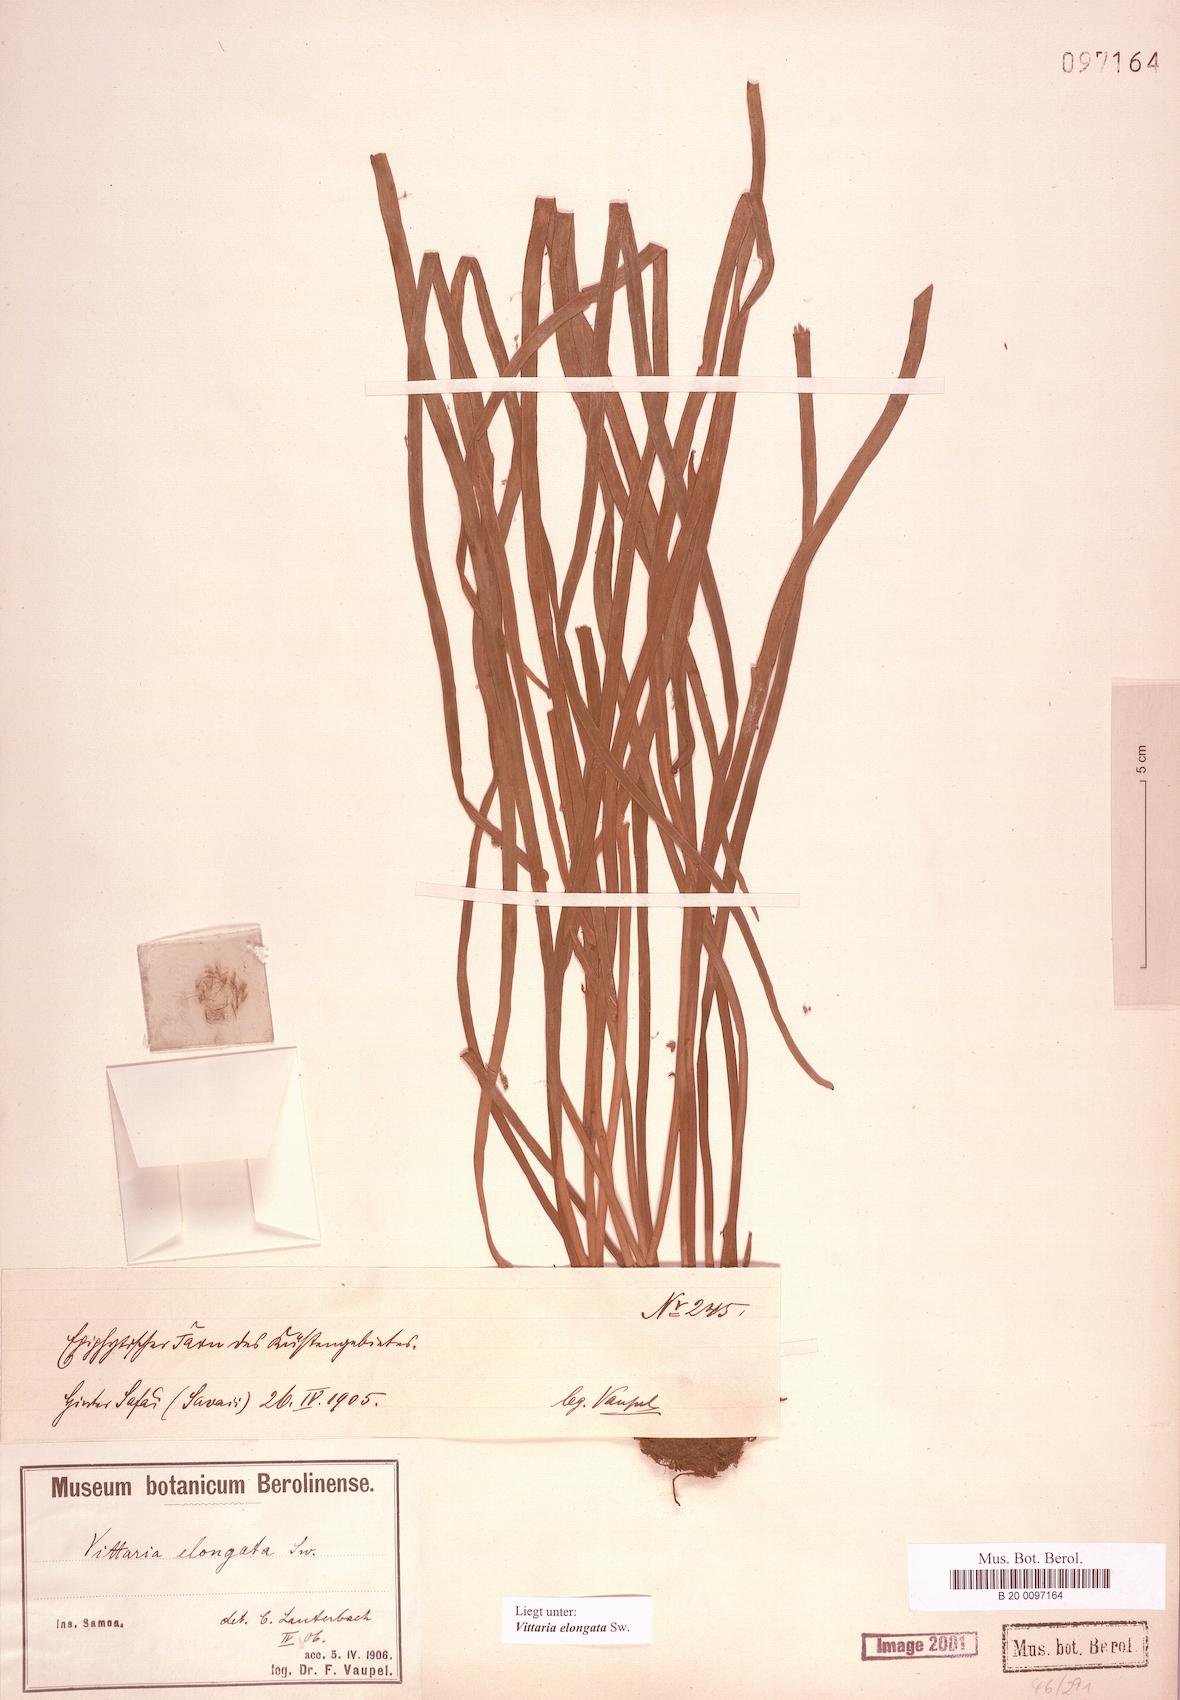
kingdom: Plantae
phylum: Tracheophyta
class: Polypodiopsida
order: Polypodiales
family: Pteridaceae
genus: Haplopteris
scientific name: Haplopteris elongata
